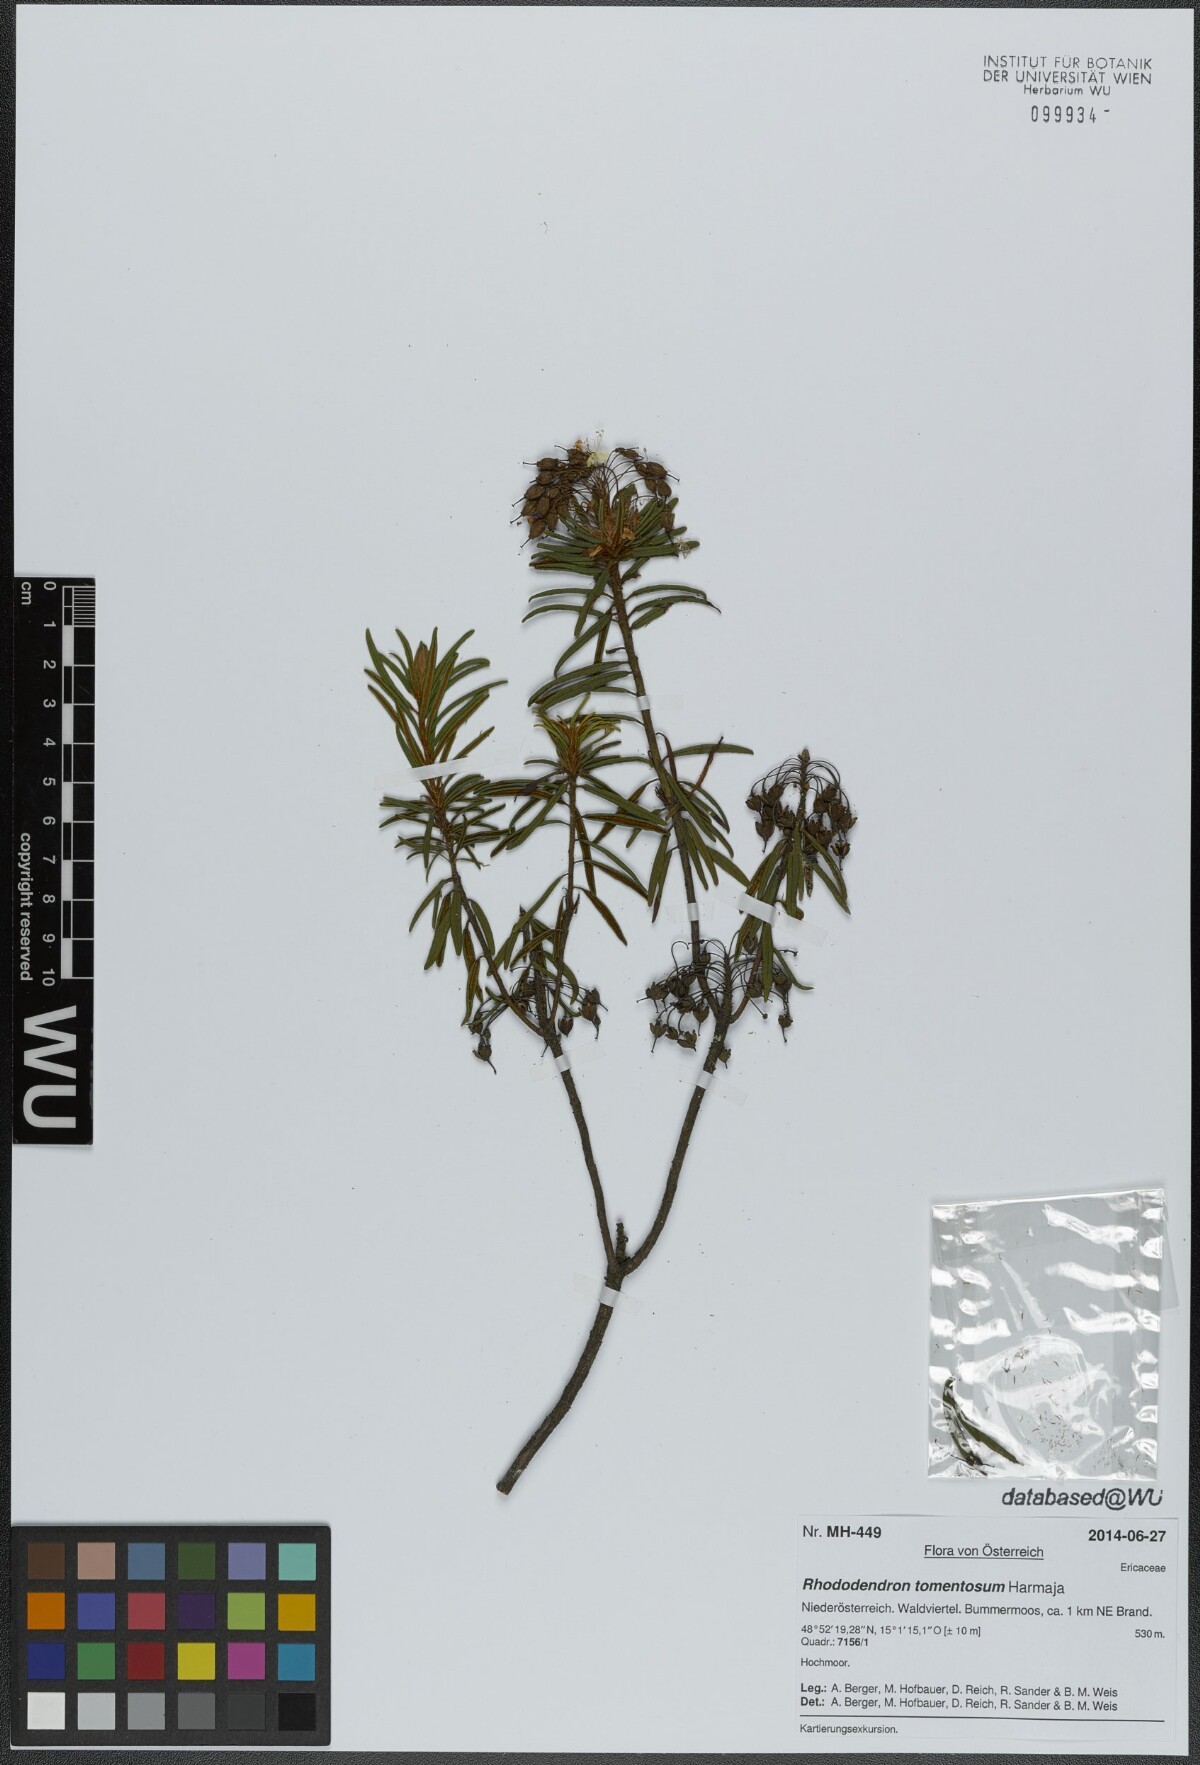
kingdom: Plantae
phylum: Tracheophyta
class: Magnoliopsida
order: Ericales
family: Ericaceae
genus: Rhododendron
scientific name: Rhododendron tomentosum
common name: Marsh labrador tea
